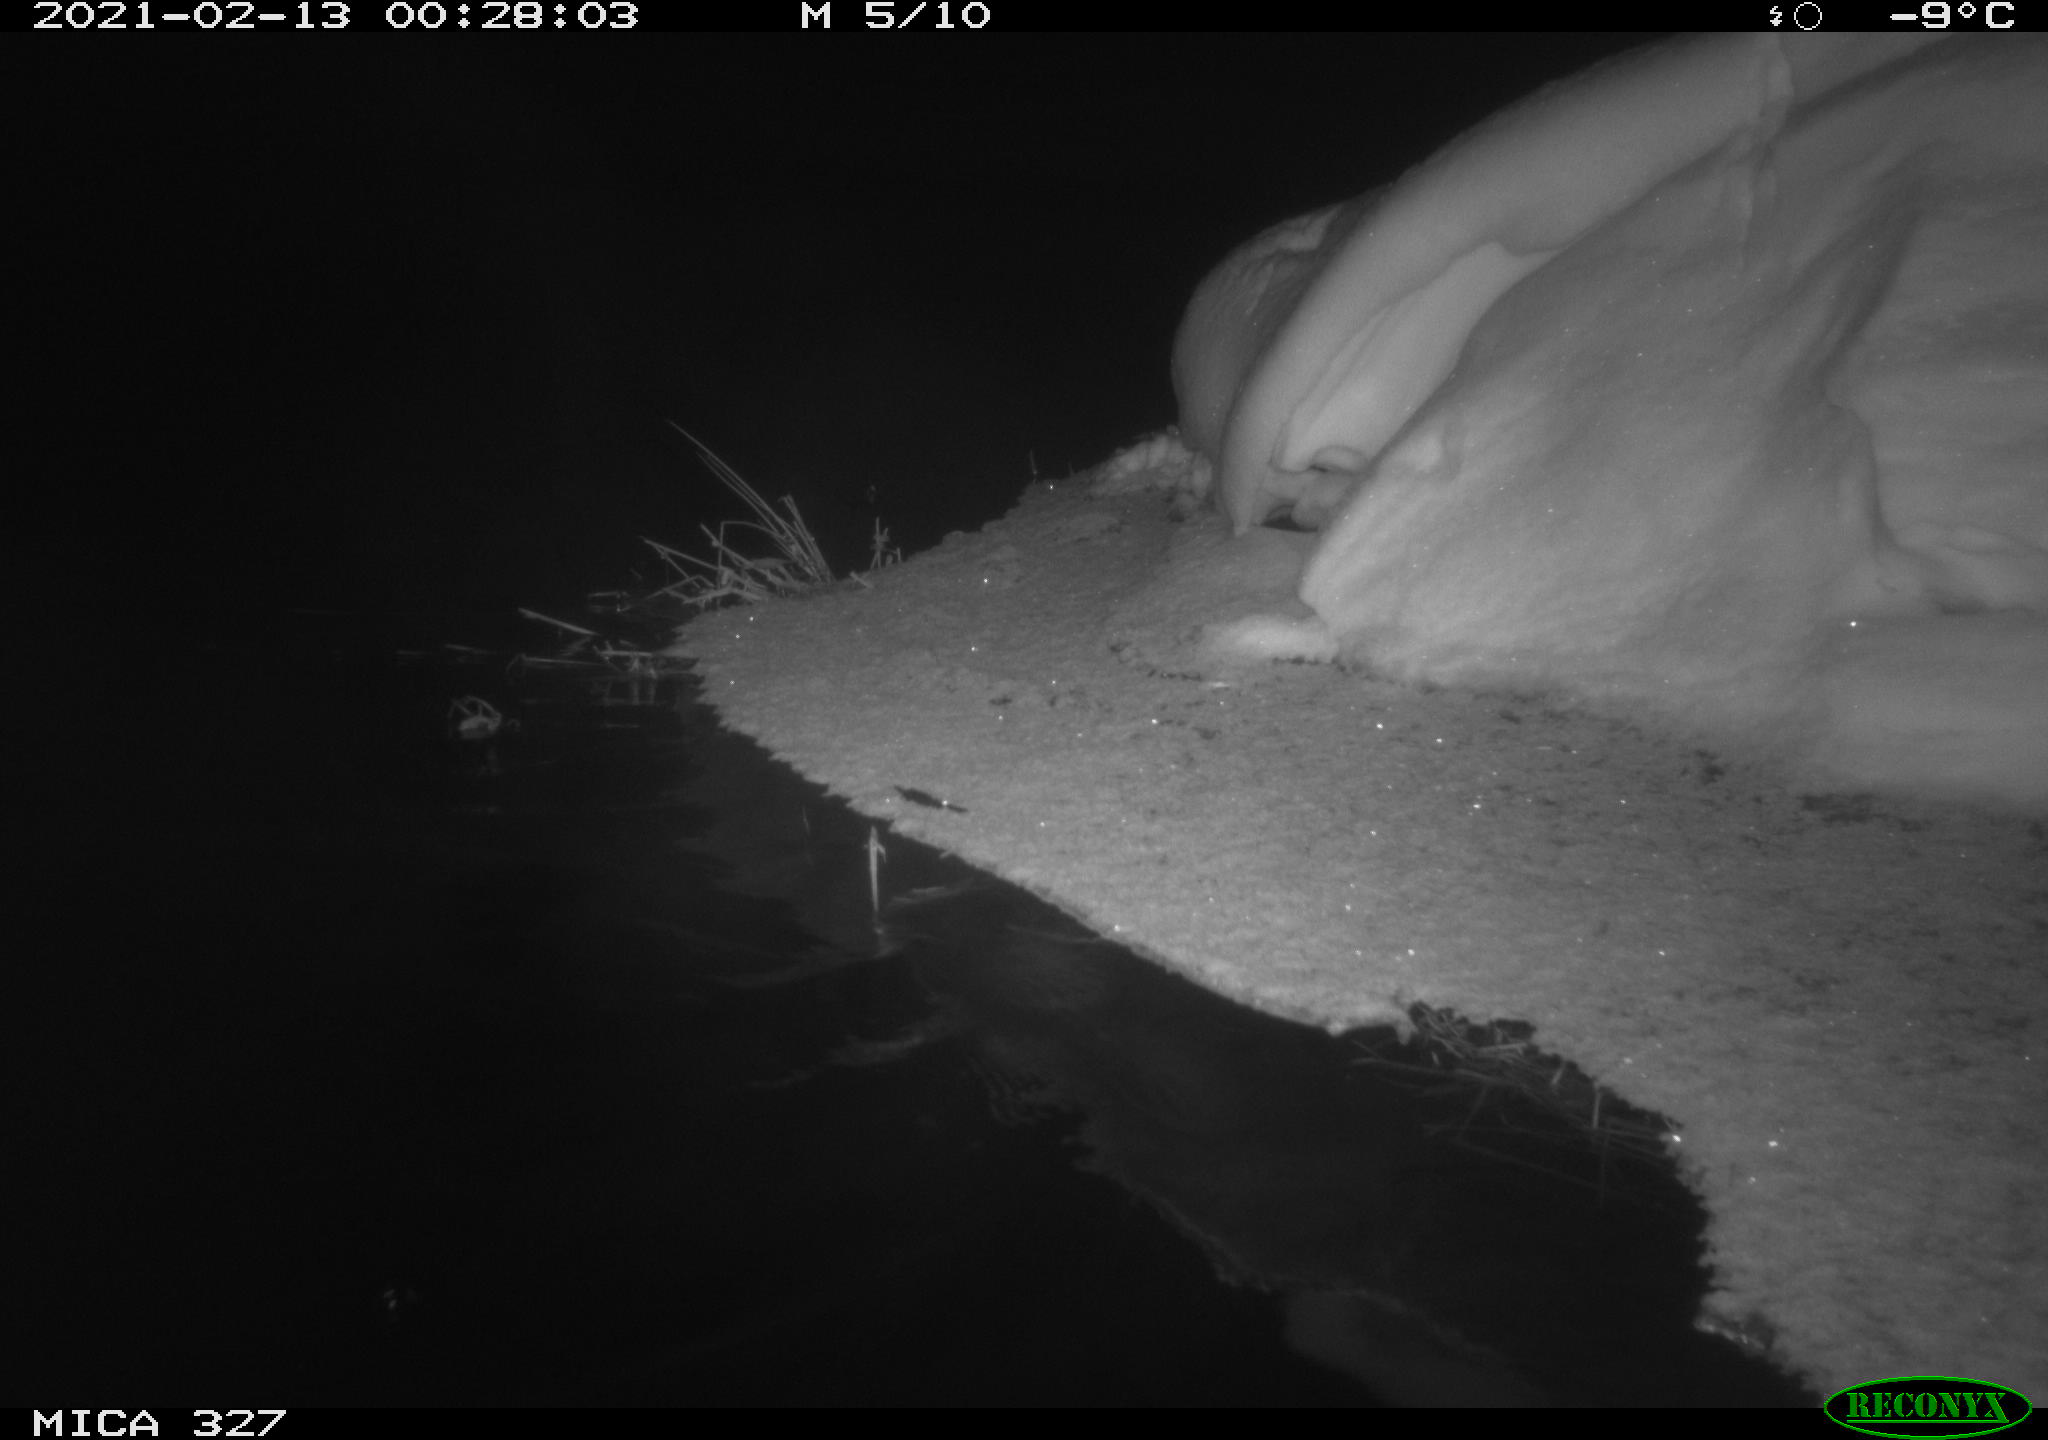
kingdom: Animalia
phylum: Chordata
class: Mammalia
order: Rodentia
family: Cricetidae
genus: Ondatra
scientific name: Ondatra zibethicus
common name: Muskrat
